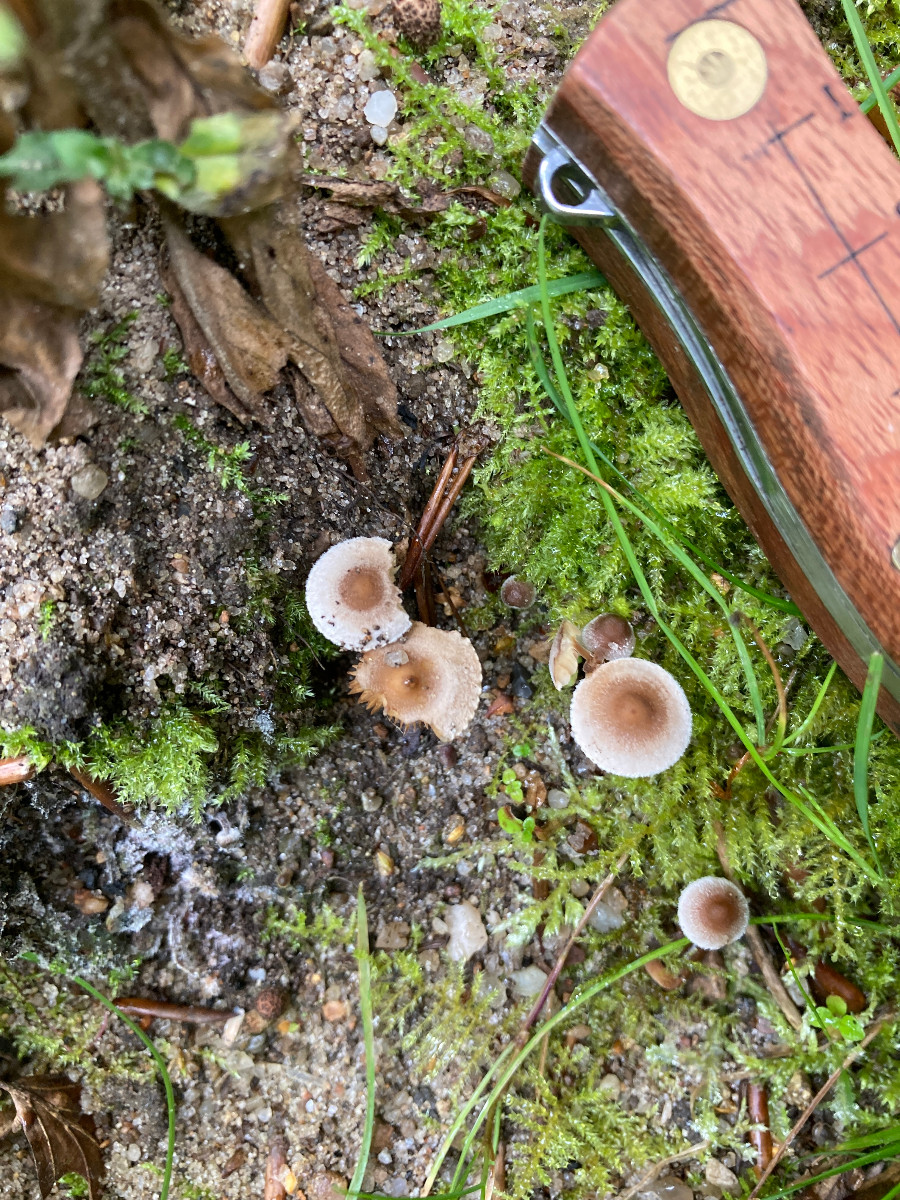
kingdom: Fungi
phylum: Basidiomycota
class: Agaricomycetes
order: Agaricales
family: Inocybaceae
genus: Inocybe
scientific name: Inocybe petiginosa
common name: liden trævlhat
